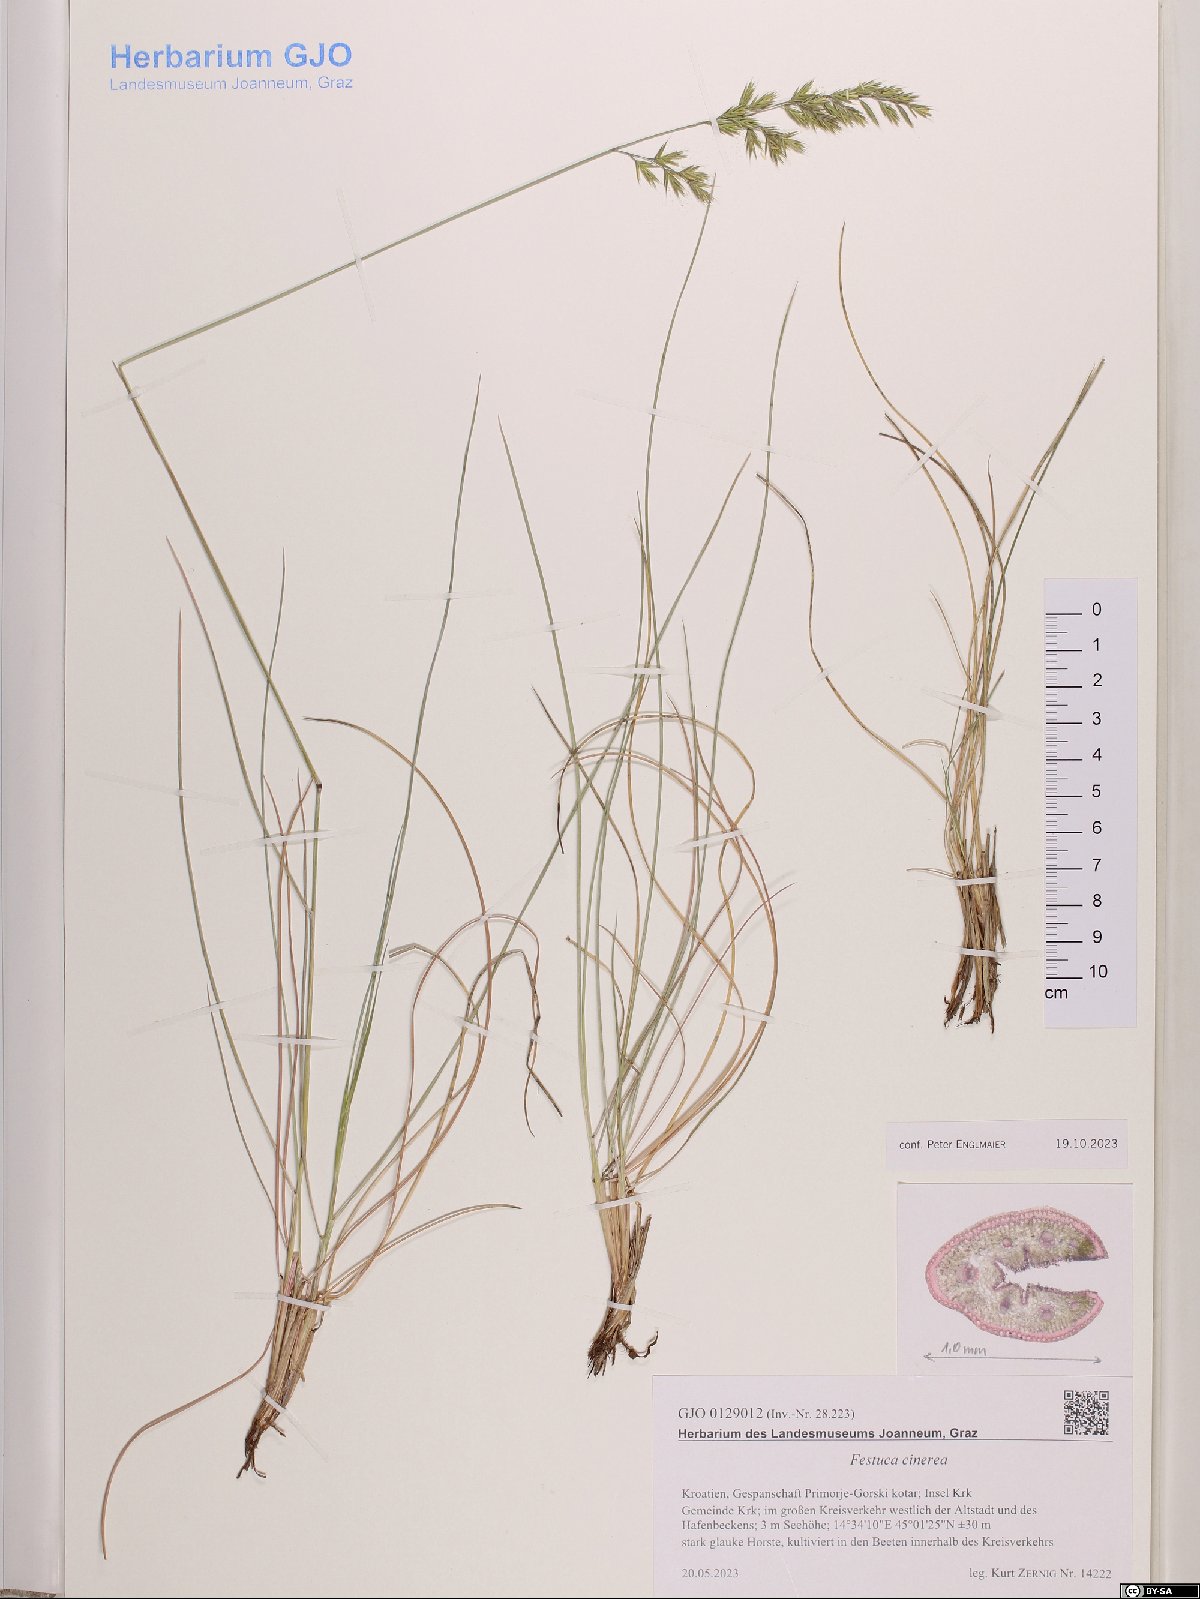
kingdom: Plantae
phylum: Tracheophyta
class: Liliopsida
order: Poales
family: Poaceae
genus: Festuca
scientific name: Festuca cinerea
